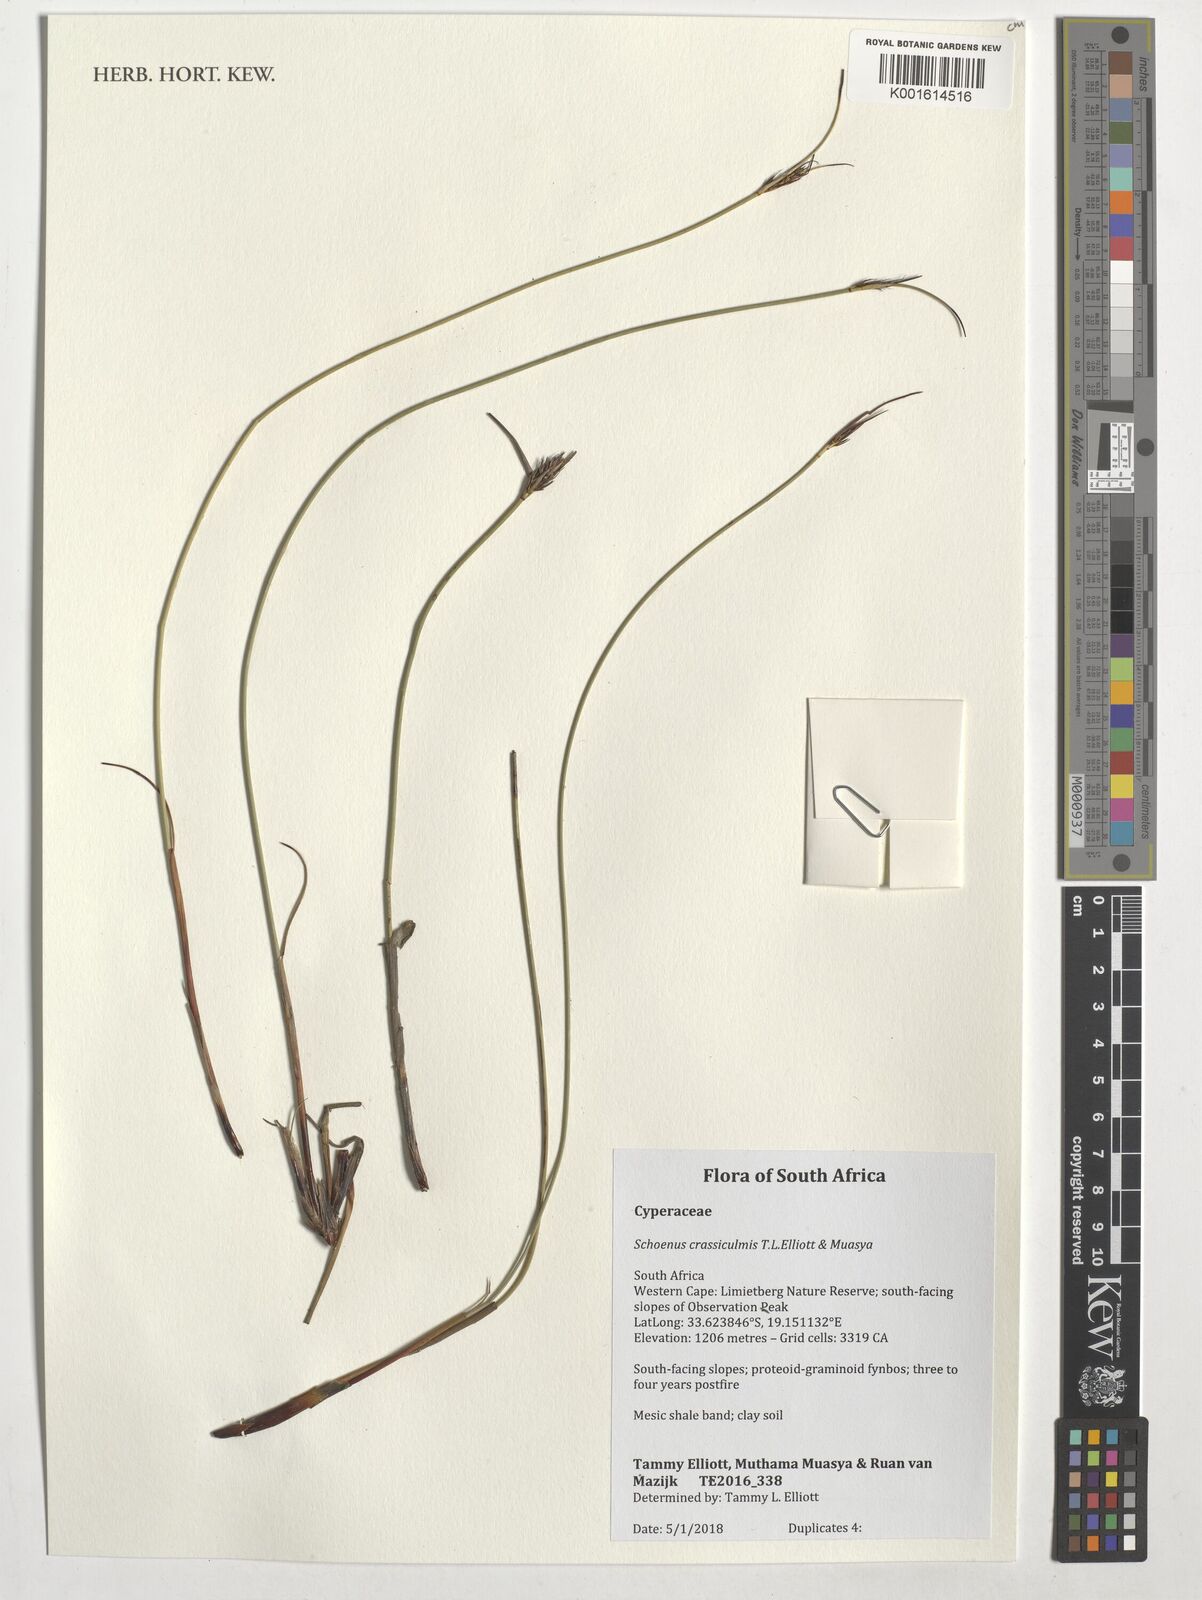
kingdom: Plantae
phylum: Tracheophyta
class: Liliopsida
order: Poales
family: Cyperaceae
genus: Schoenus
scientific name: Schoenus crassiculmis
